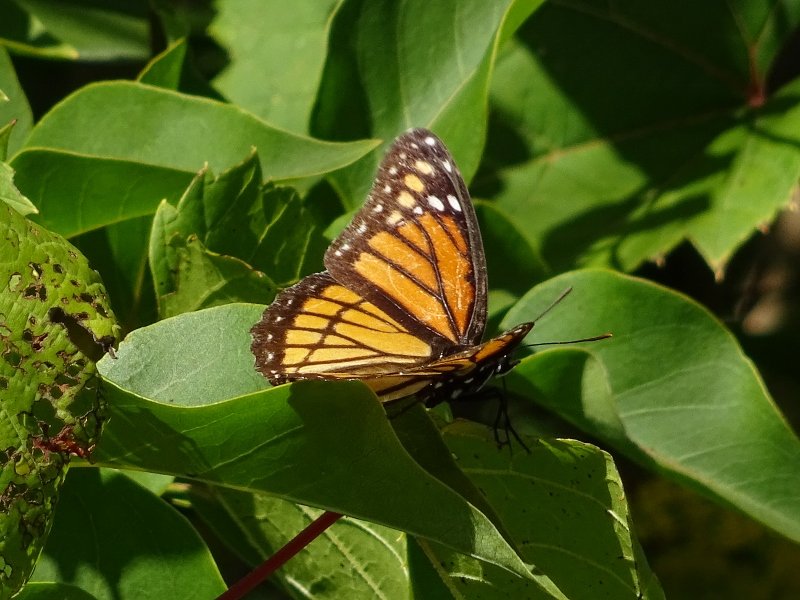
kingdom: Animalia
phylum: Arthropoda
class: Insecta
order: Lepidoptera
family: Nymphalidae
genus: Limenitis
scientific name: Limenitis archippus
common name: Viceroy
